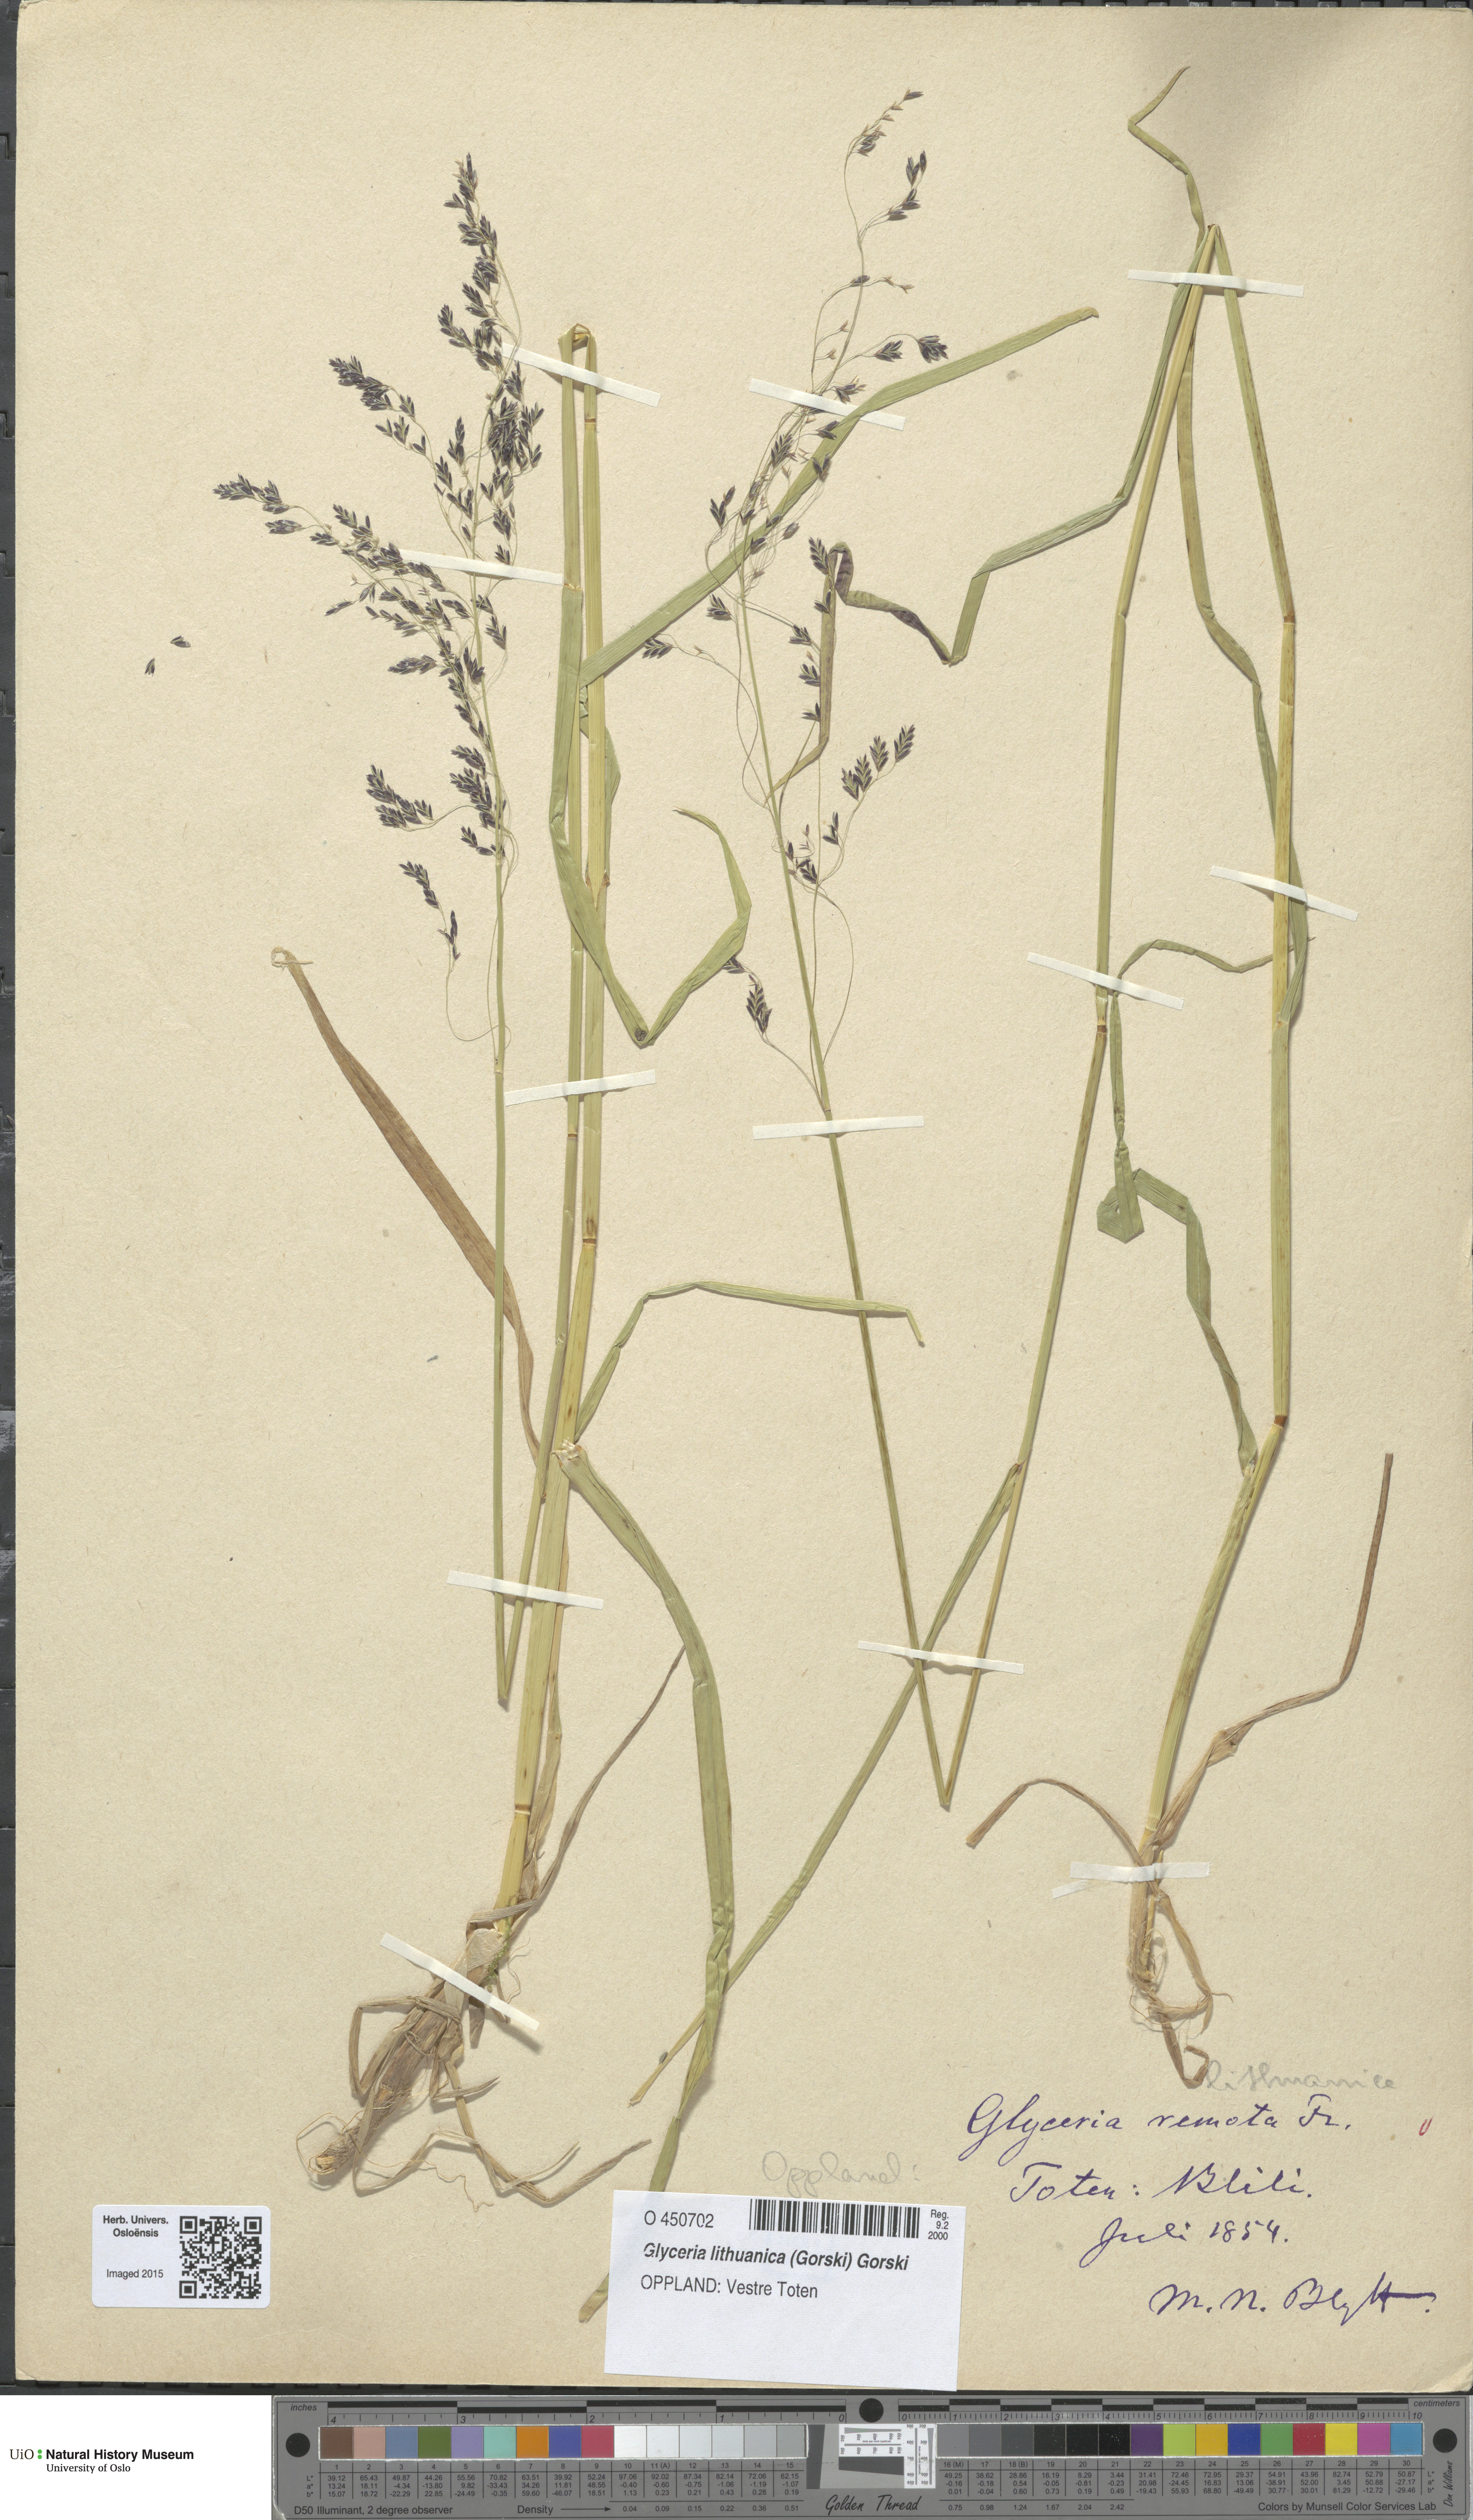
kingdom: Plantae
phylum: Tracheophyta
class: Liliopsida
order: Poales
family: Poaceae
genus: Glyceria
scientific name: Glyceria lithuanica
